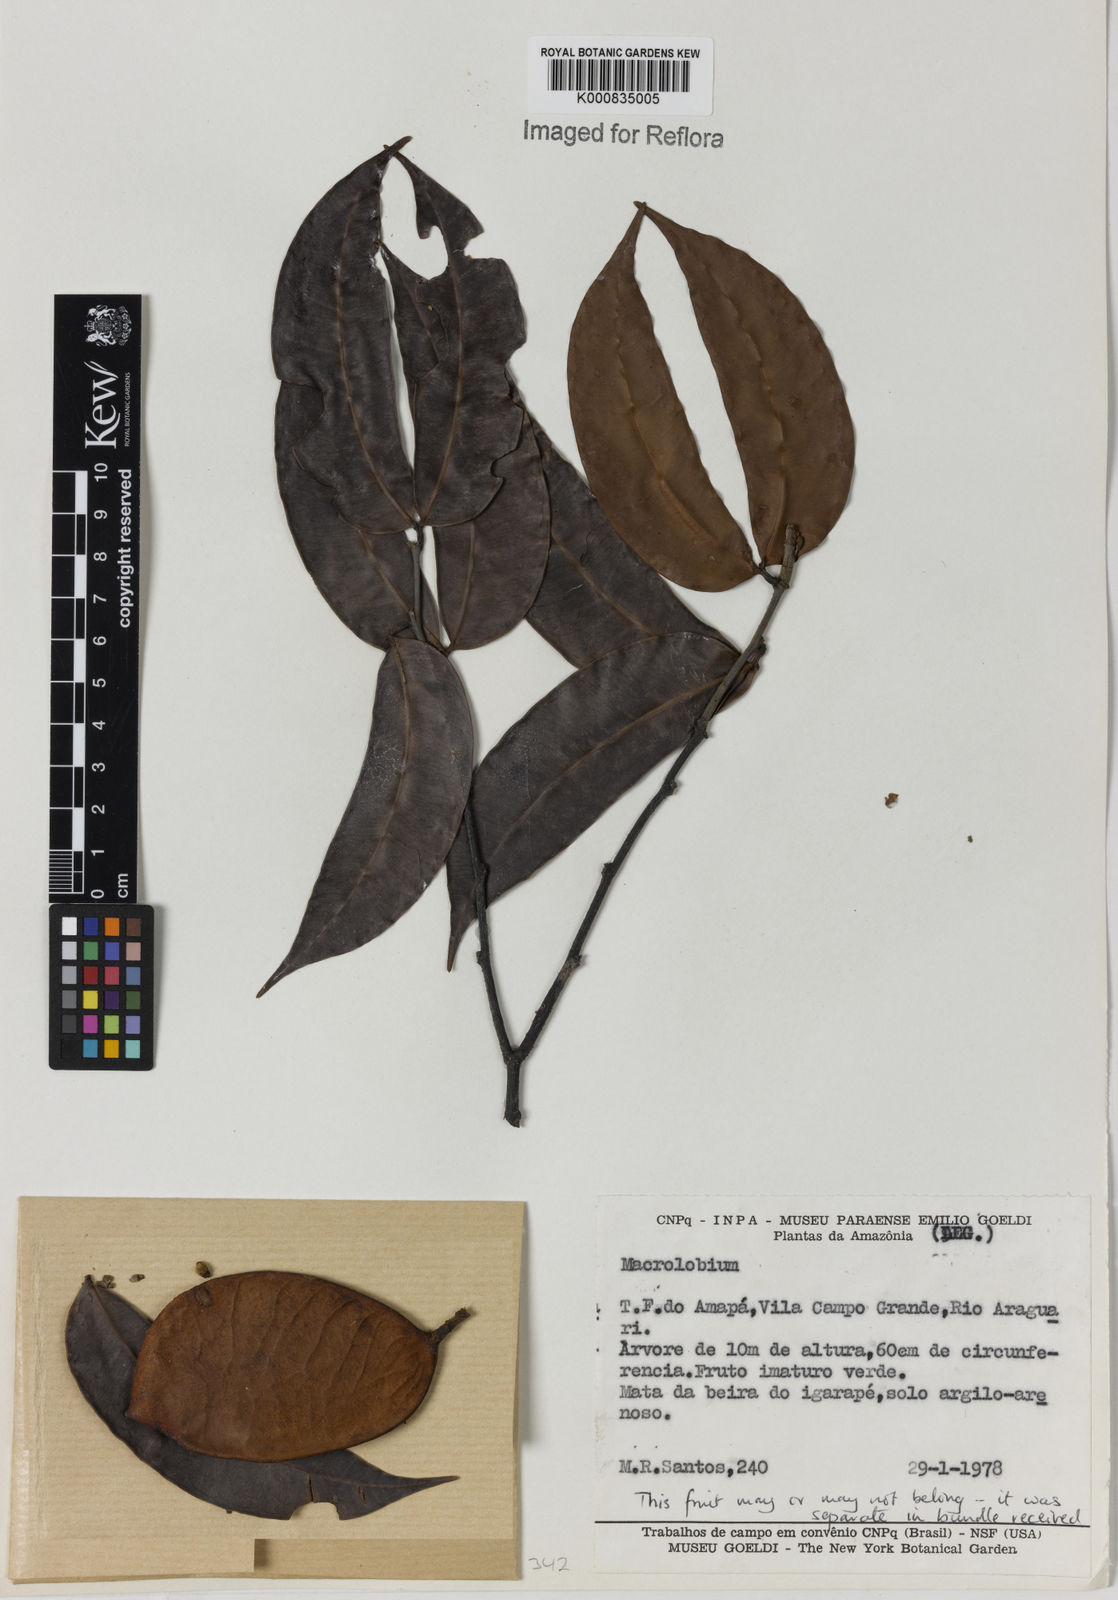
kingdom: Plantae
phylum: Tracheophyta
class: Magnoliopsida
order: Fabales
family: Fabaceae
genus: Macrolobium
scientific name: Macrolobium
